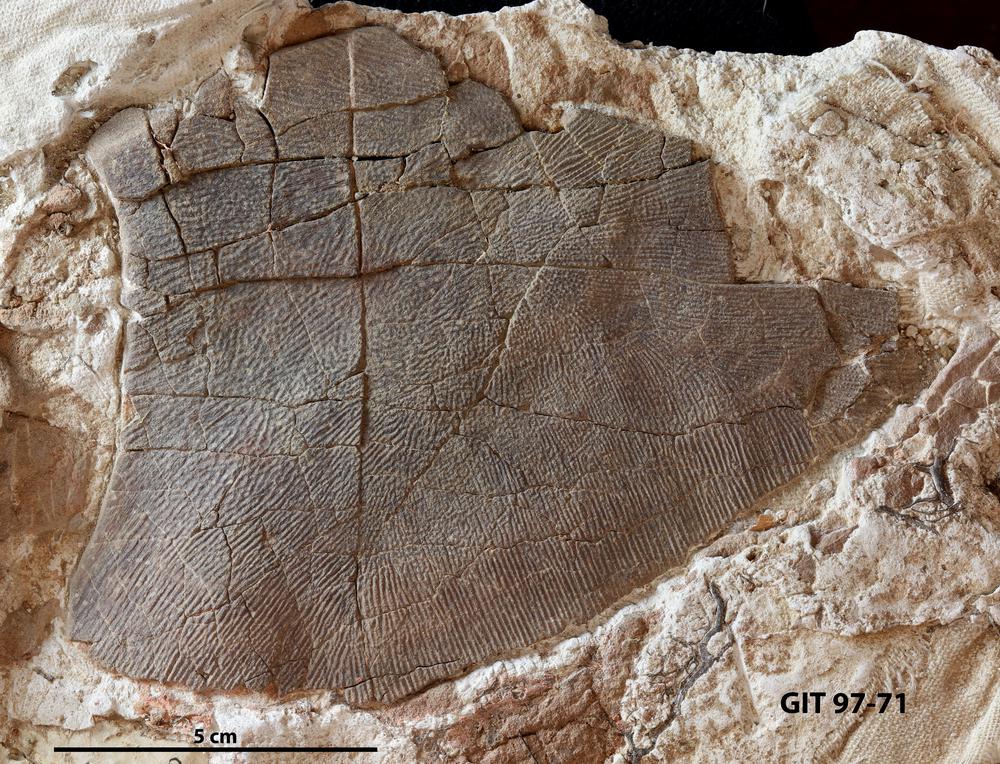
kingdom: Animalia
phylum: Chordata
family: Holonematidae
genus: Holonema
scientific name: Holonema
